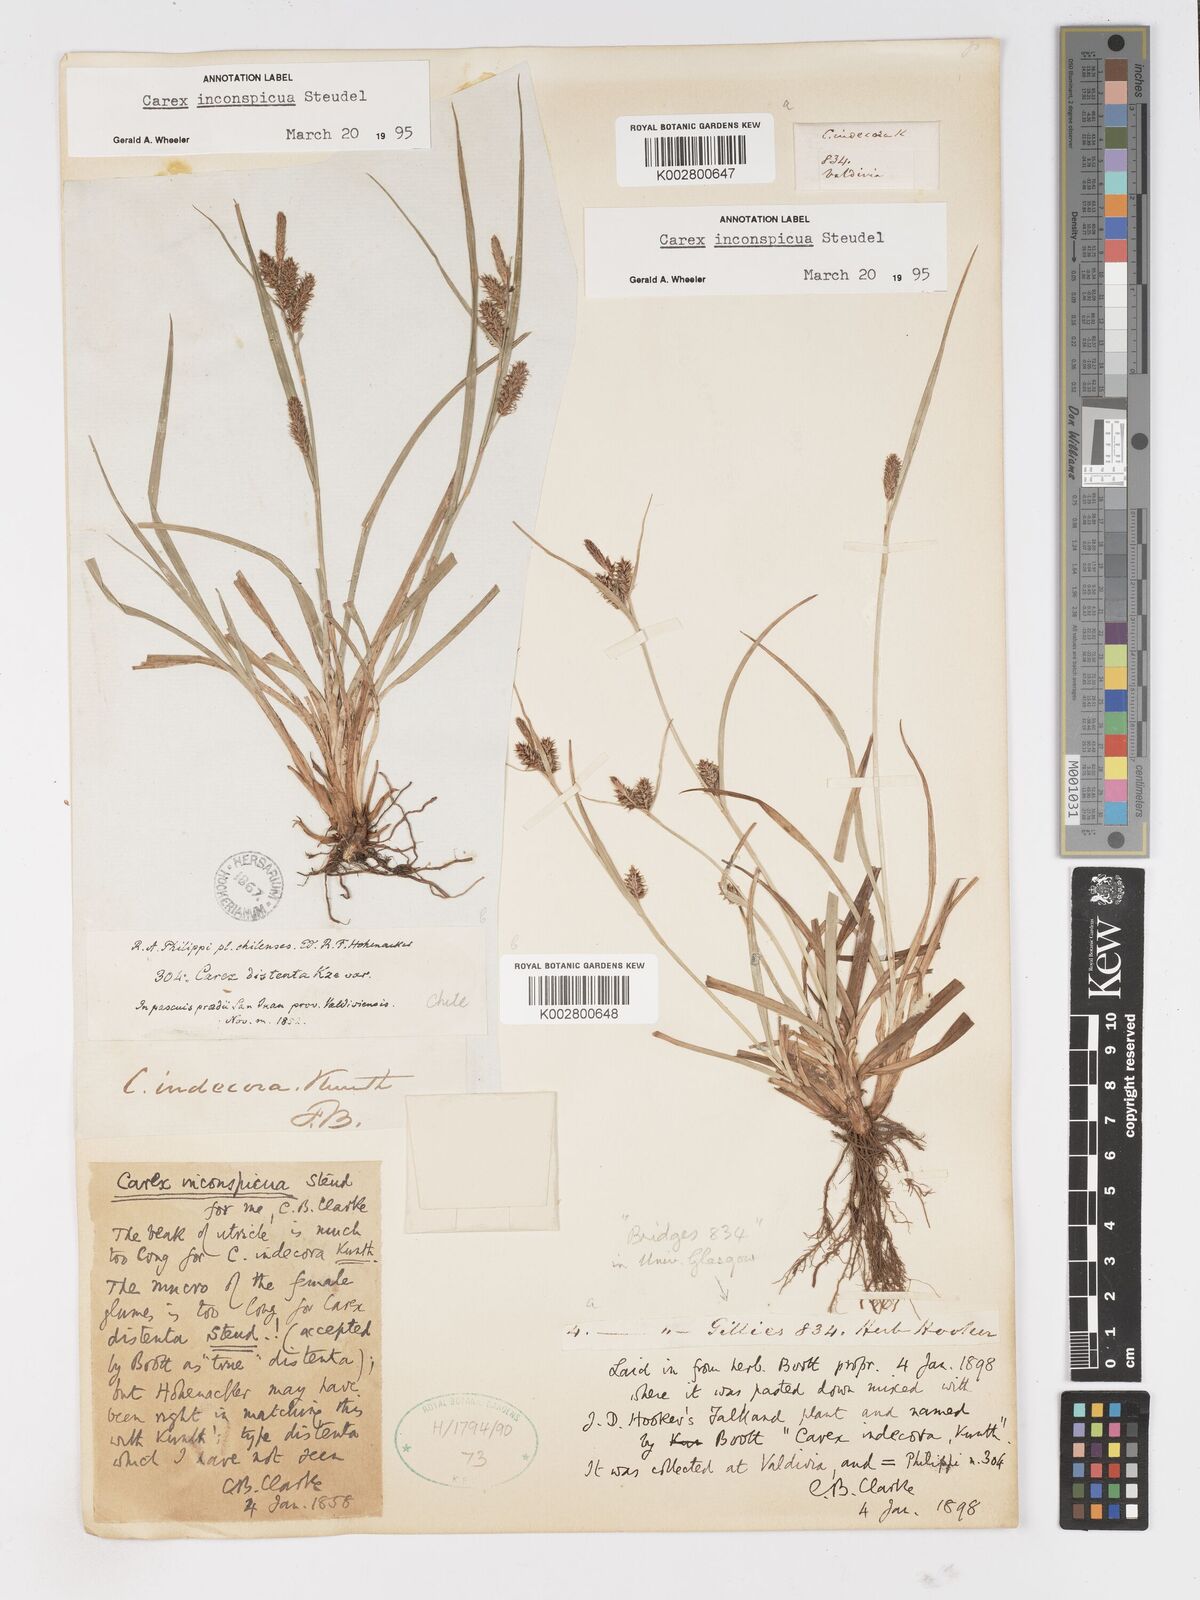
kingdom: Plantae
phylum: Tracheophyta
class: Liliopsida
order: Poales
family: Cyperaceae
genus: Carex
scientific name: Carex fuscula
